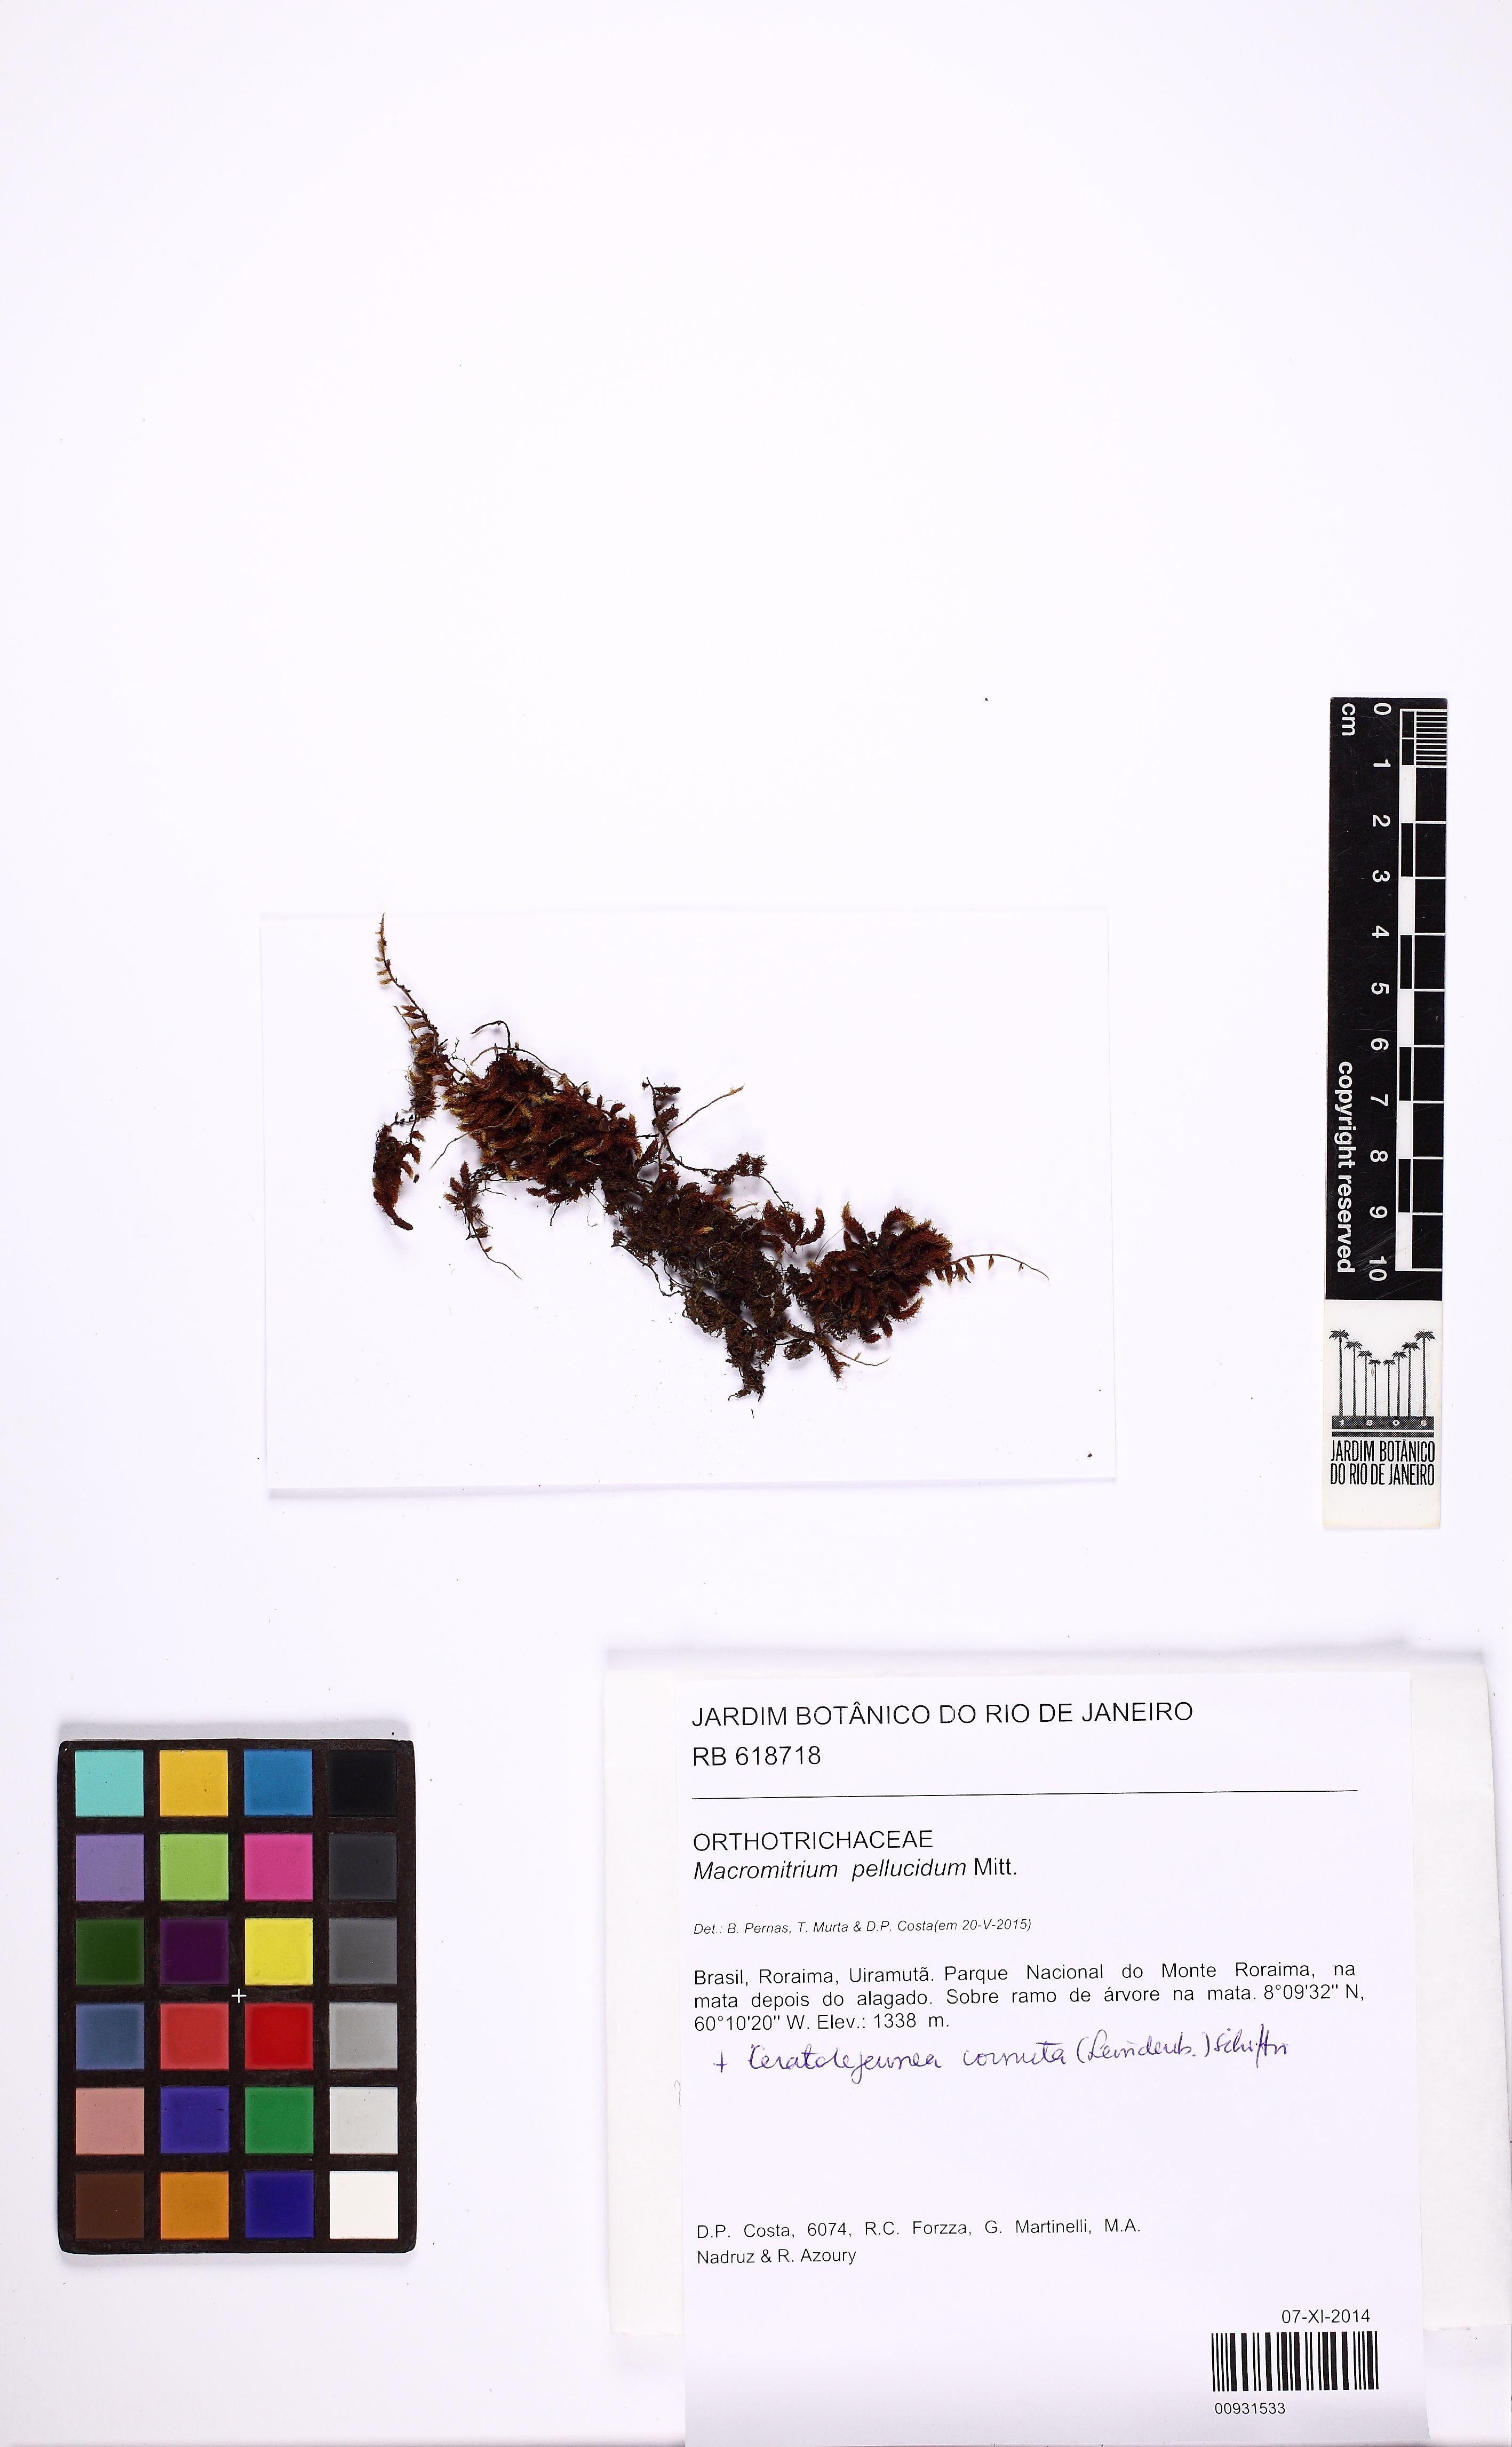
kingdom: Plantae
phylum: Bryophyta
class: Bryopsida
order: Orthotrichales
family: Orthotrichaceae
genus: Schlotheimia
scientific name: Schlotheimia trichomitria
